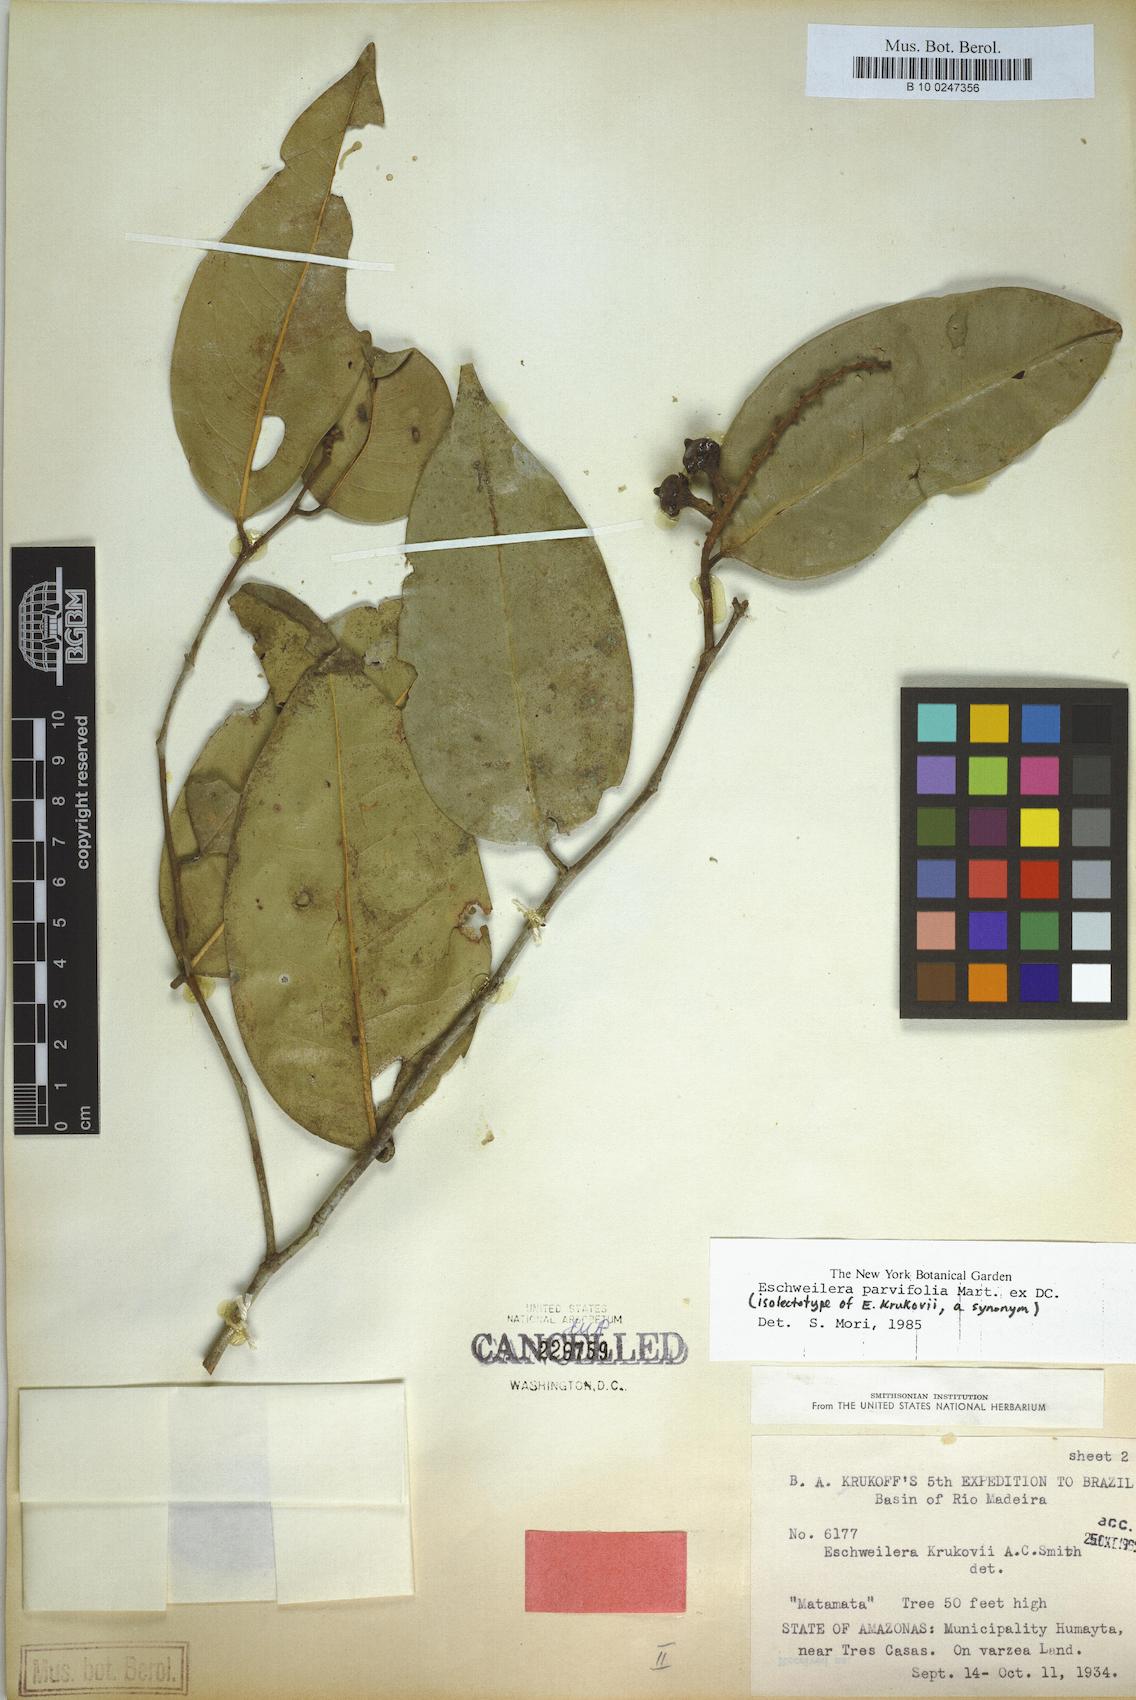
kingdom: Plantae
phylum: Tracheophyta
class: Magnoliopsida
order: Ericales
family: Lecythidaceae
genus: Eschweilera
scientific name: Eschweilera parvifolia
